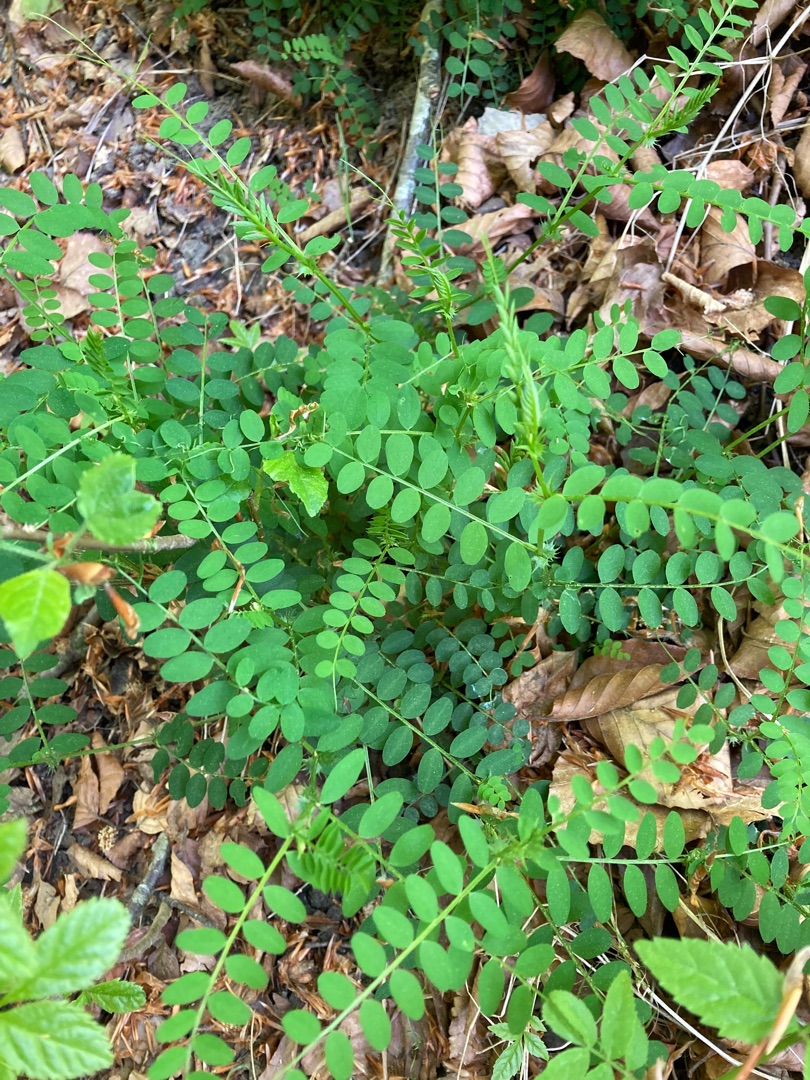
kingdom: Plantae
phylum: Tracheophyta
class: Magnoliopsida
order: Fabales
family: Fabaceae
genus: Vicia
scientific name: Vicia sylvatica
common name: Skov-vikke
